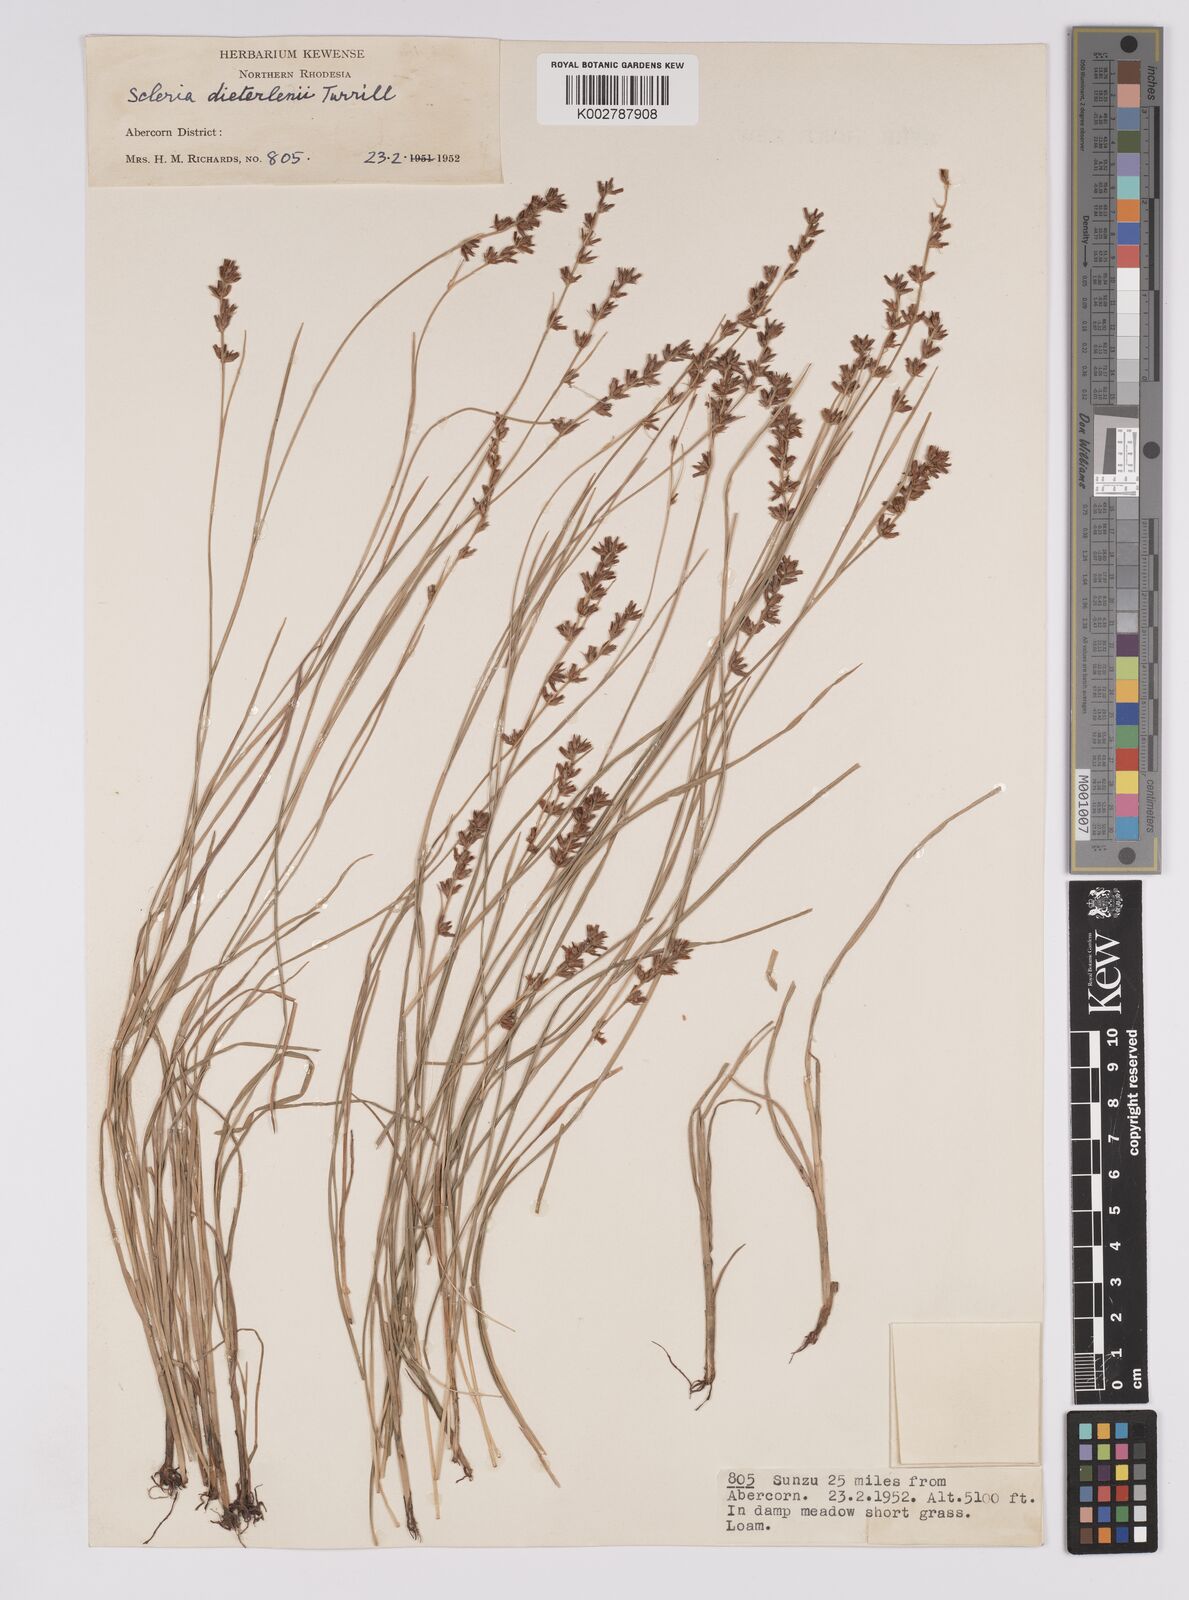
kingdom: Plantae
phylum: Tracheophyta
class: Liliopsida
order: Poales
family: Cyperaceae
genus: Scleria
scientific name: Scleria flexuosa
